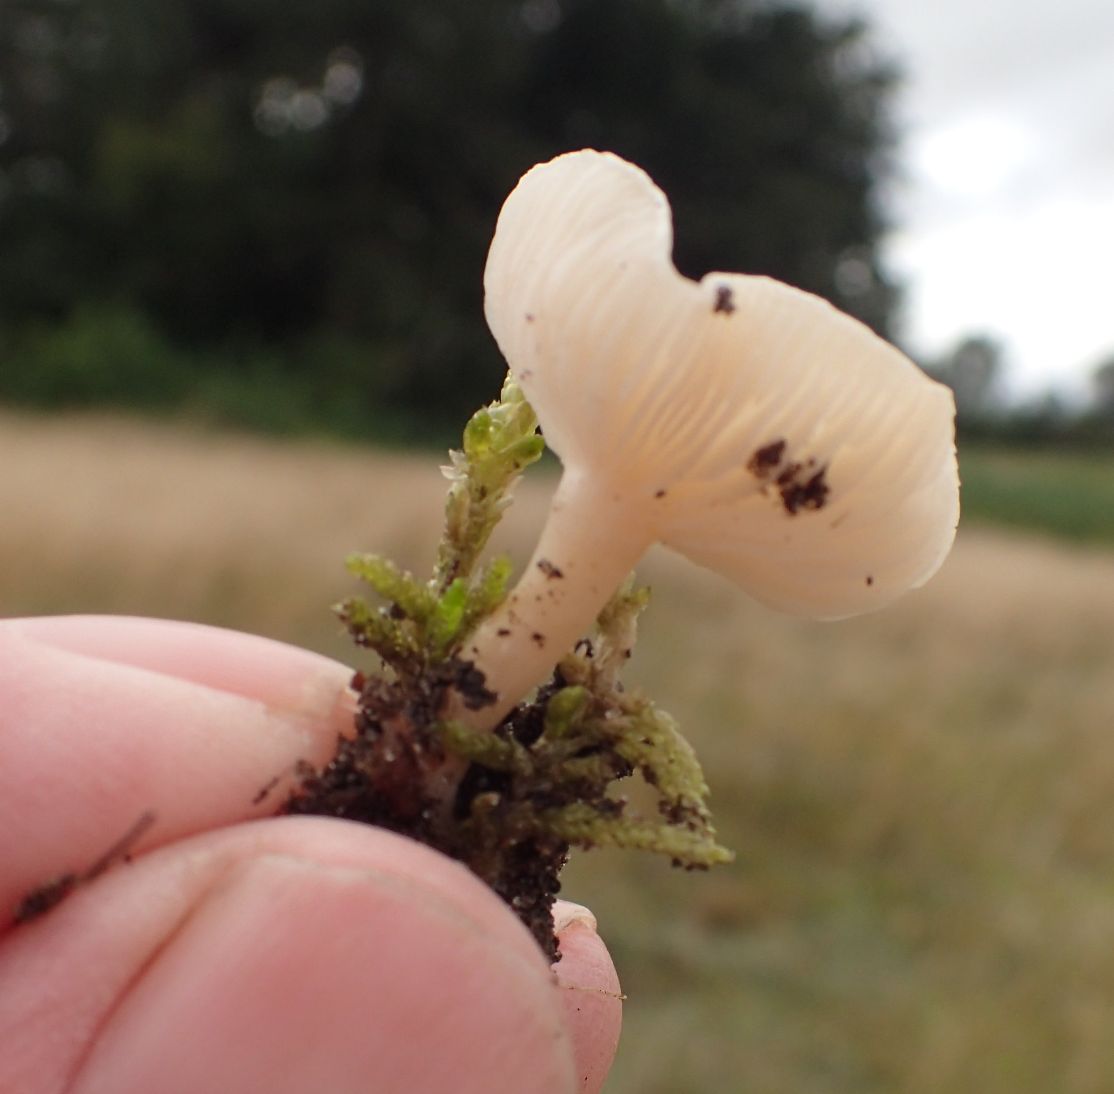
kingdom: Fungi
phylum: Basidiomycota
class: Agaricomycetes
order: Agaricales
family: Tricholomataceae
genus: Clitocybe
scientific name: Clitocybe
